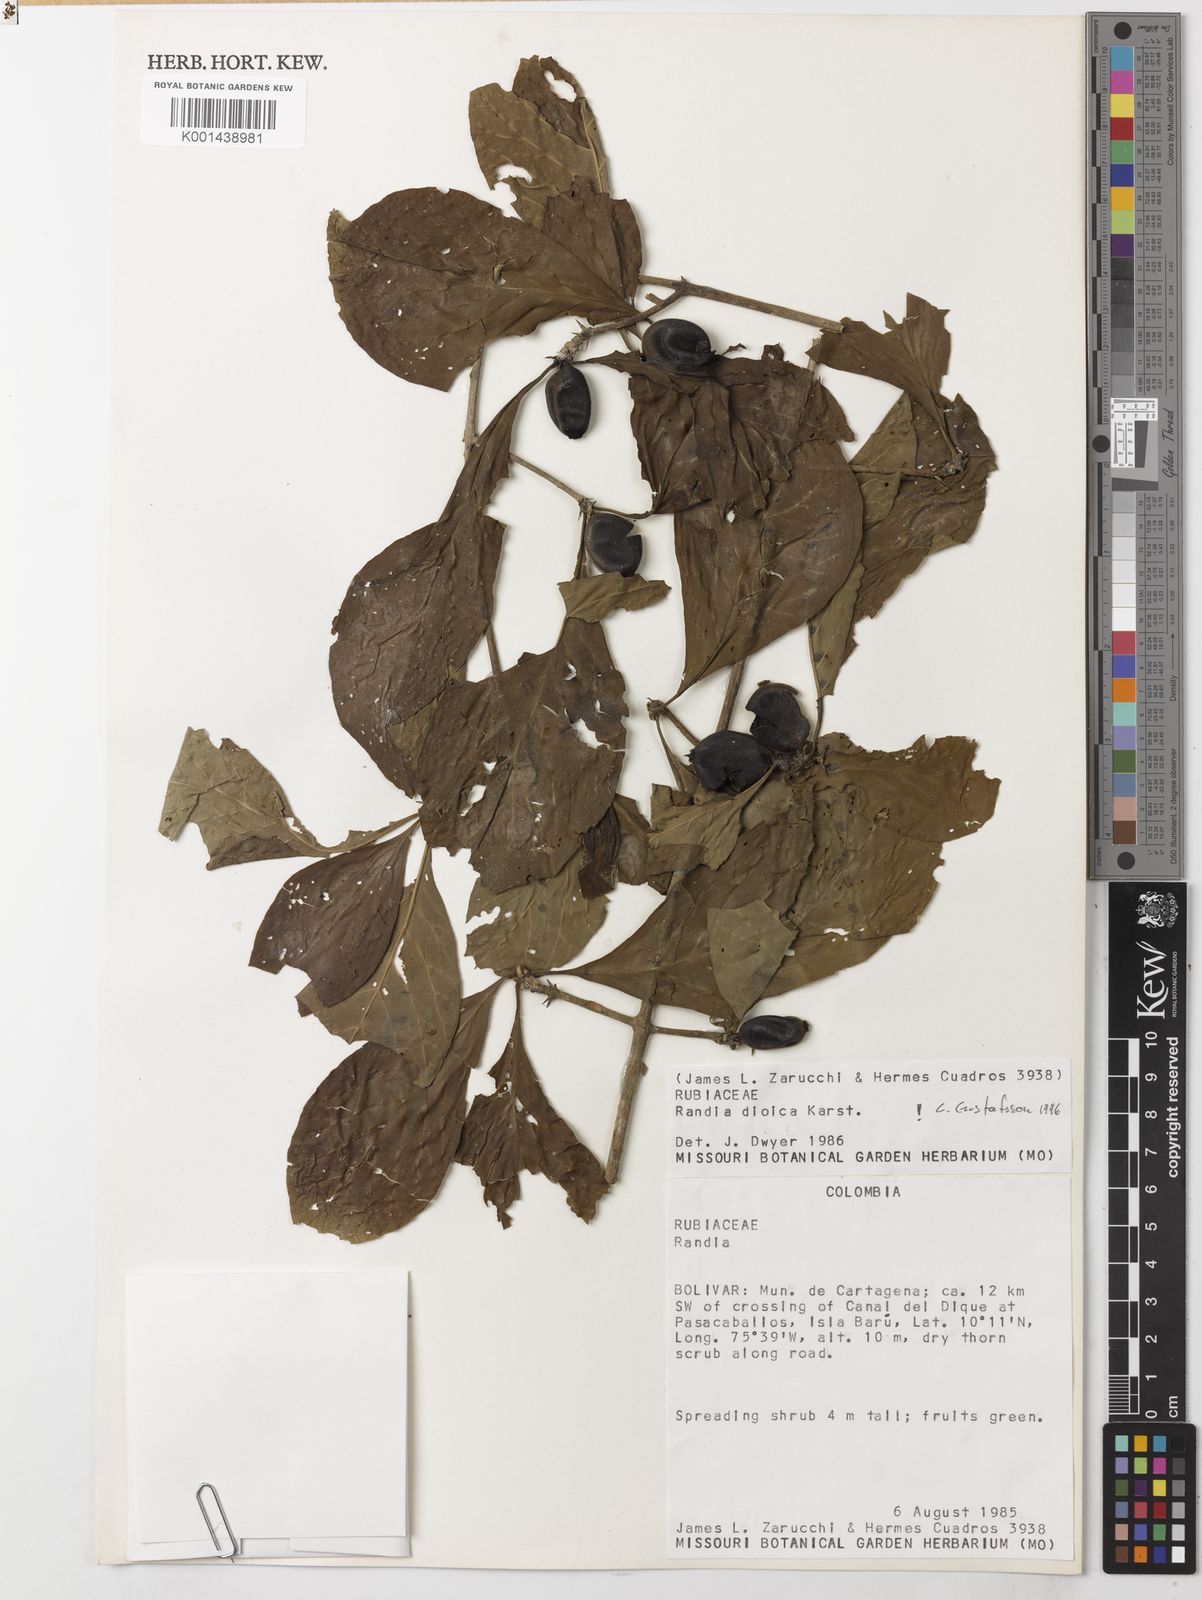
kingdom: Plantae
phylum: Tracheophyta
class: Magnoliopsida
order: Gentianales
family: Rubiaceae
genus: Randia
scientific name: Randia dioica
